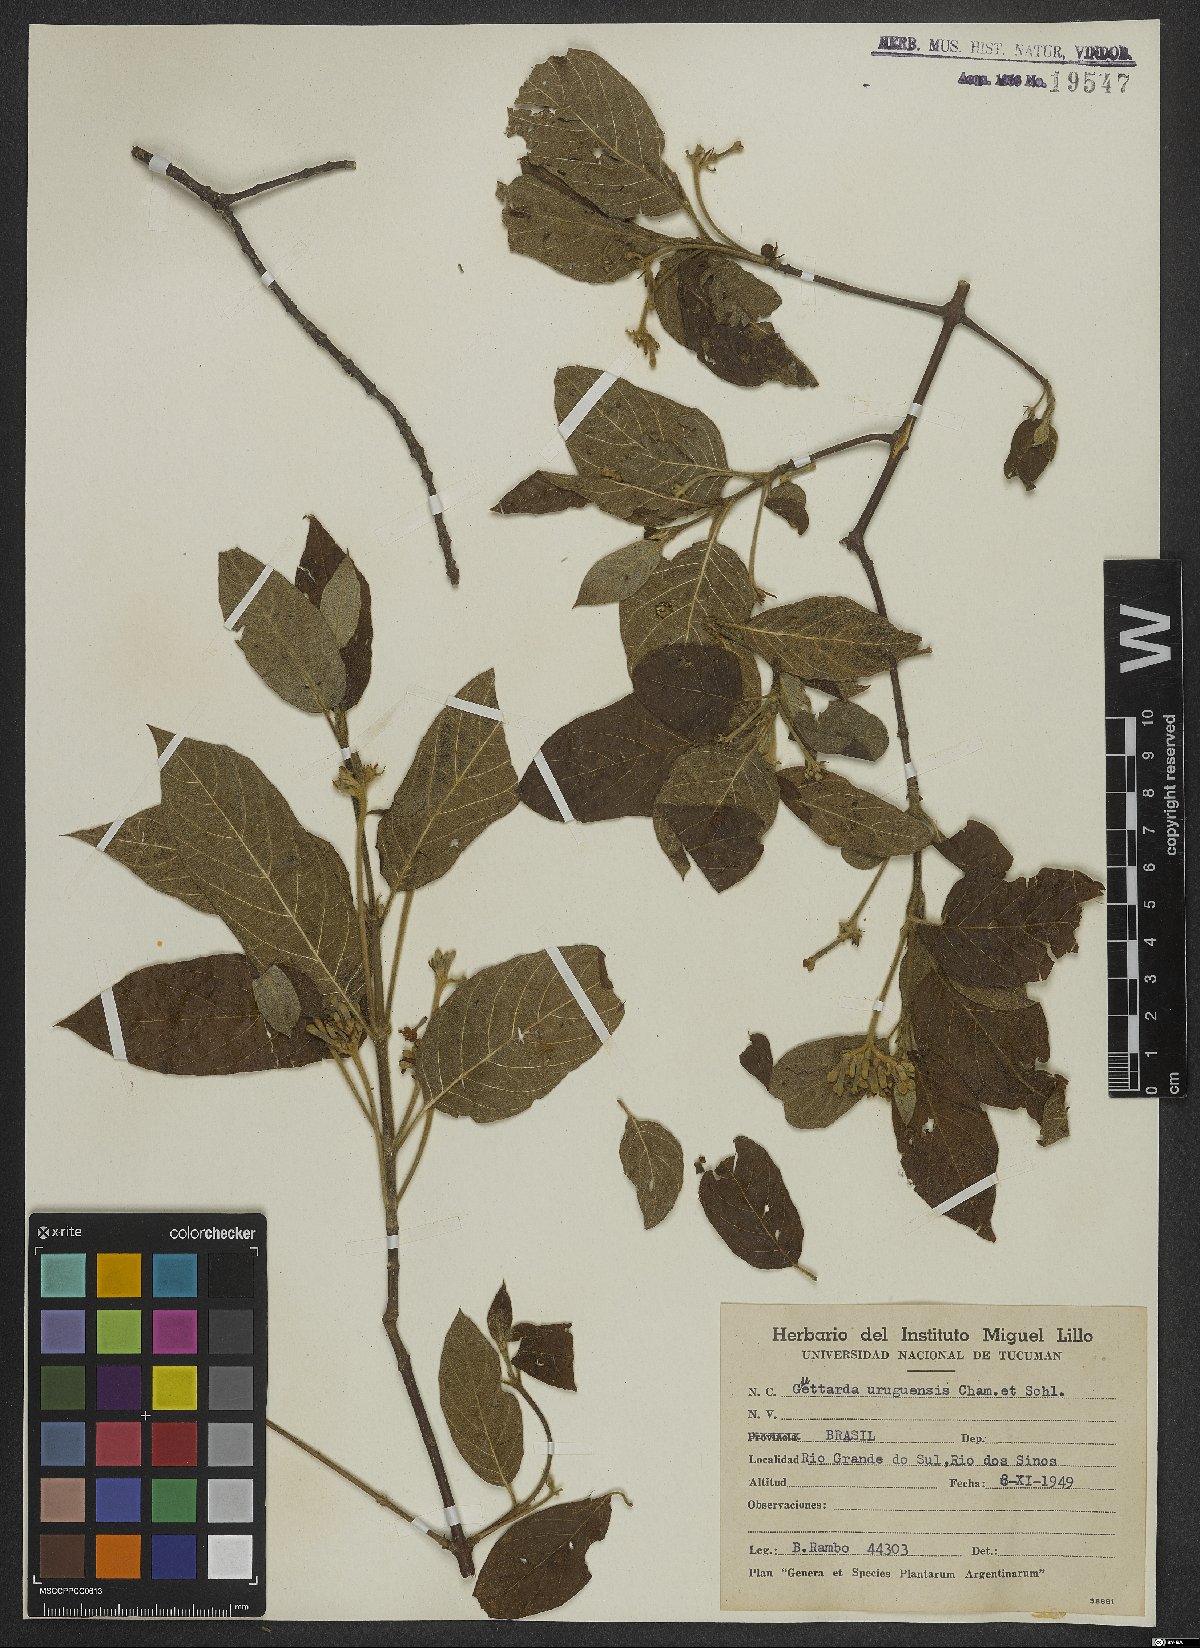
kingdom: Plantae
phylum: Tracheophyta
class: Magnoliopsida
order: Gentianales
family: Rubiaceae
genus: Guettarda
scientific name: Guettarda uruguensis
